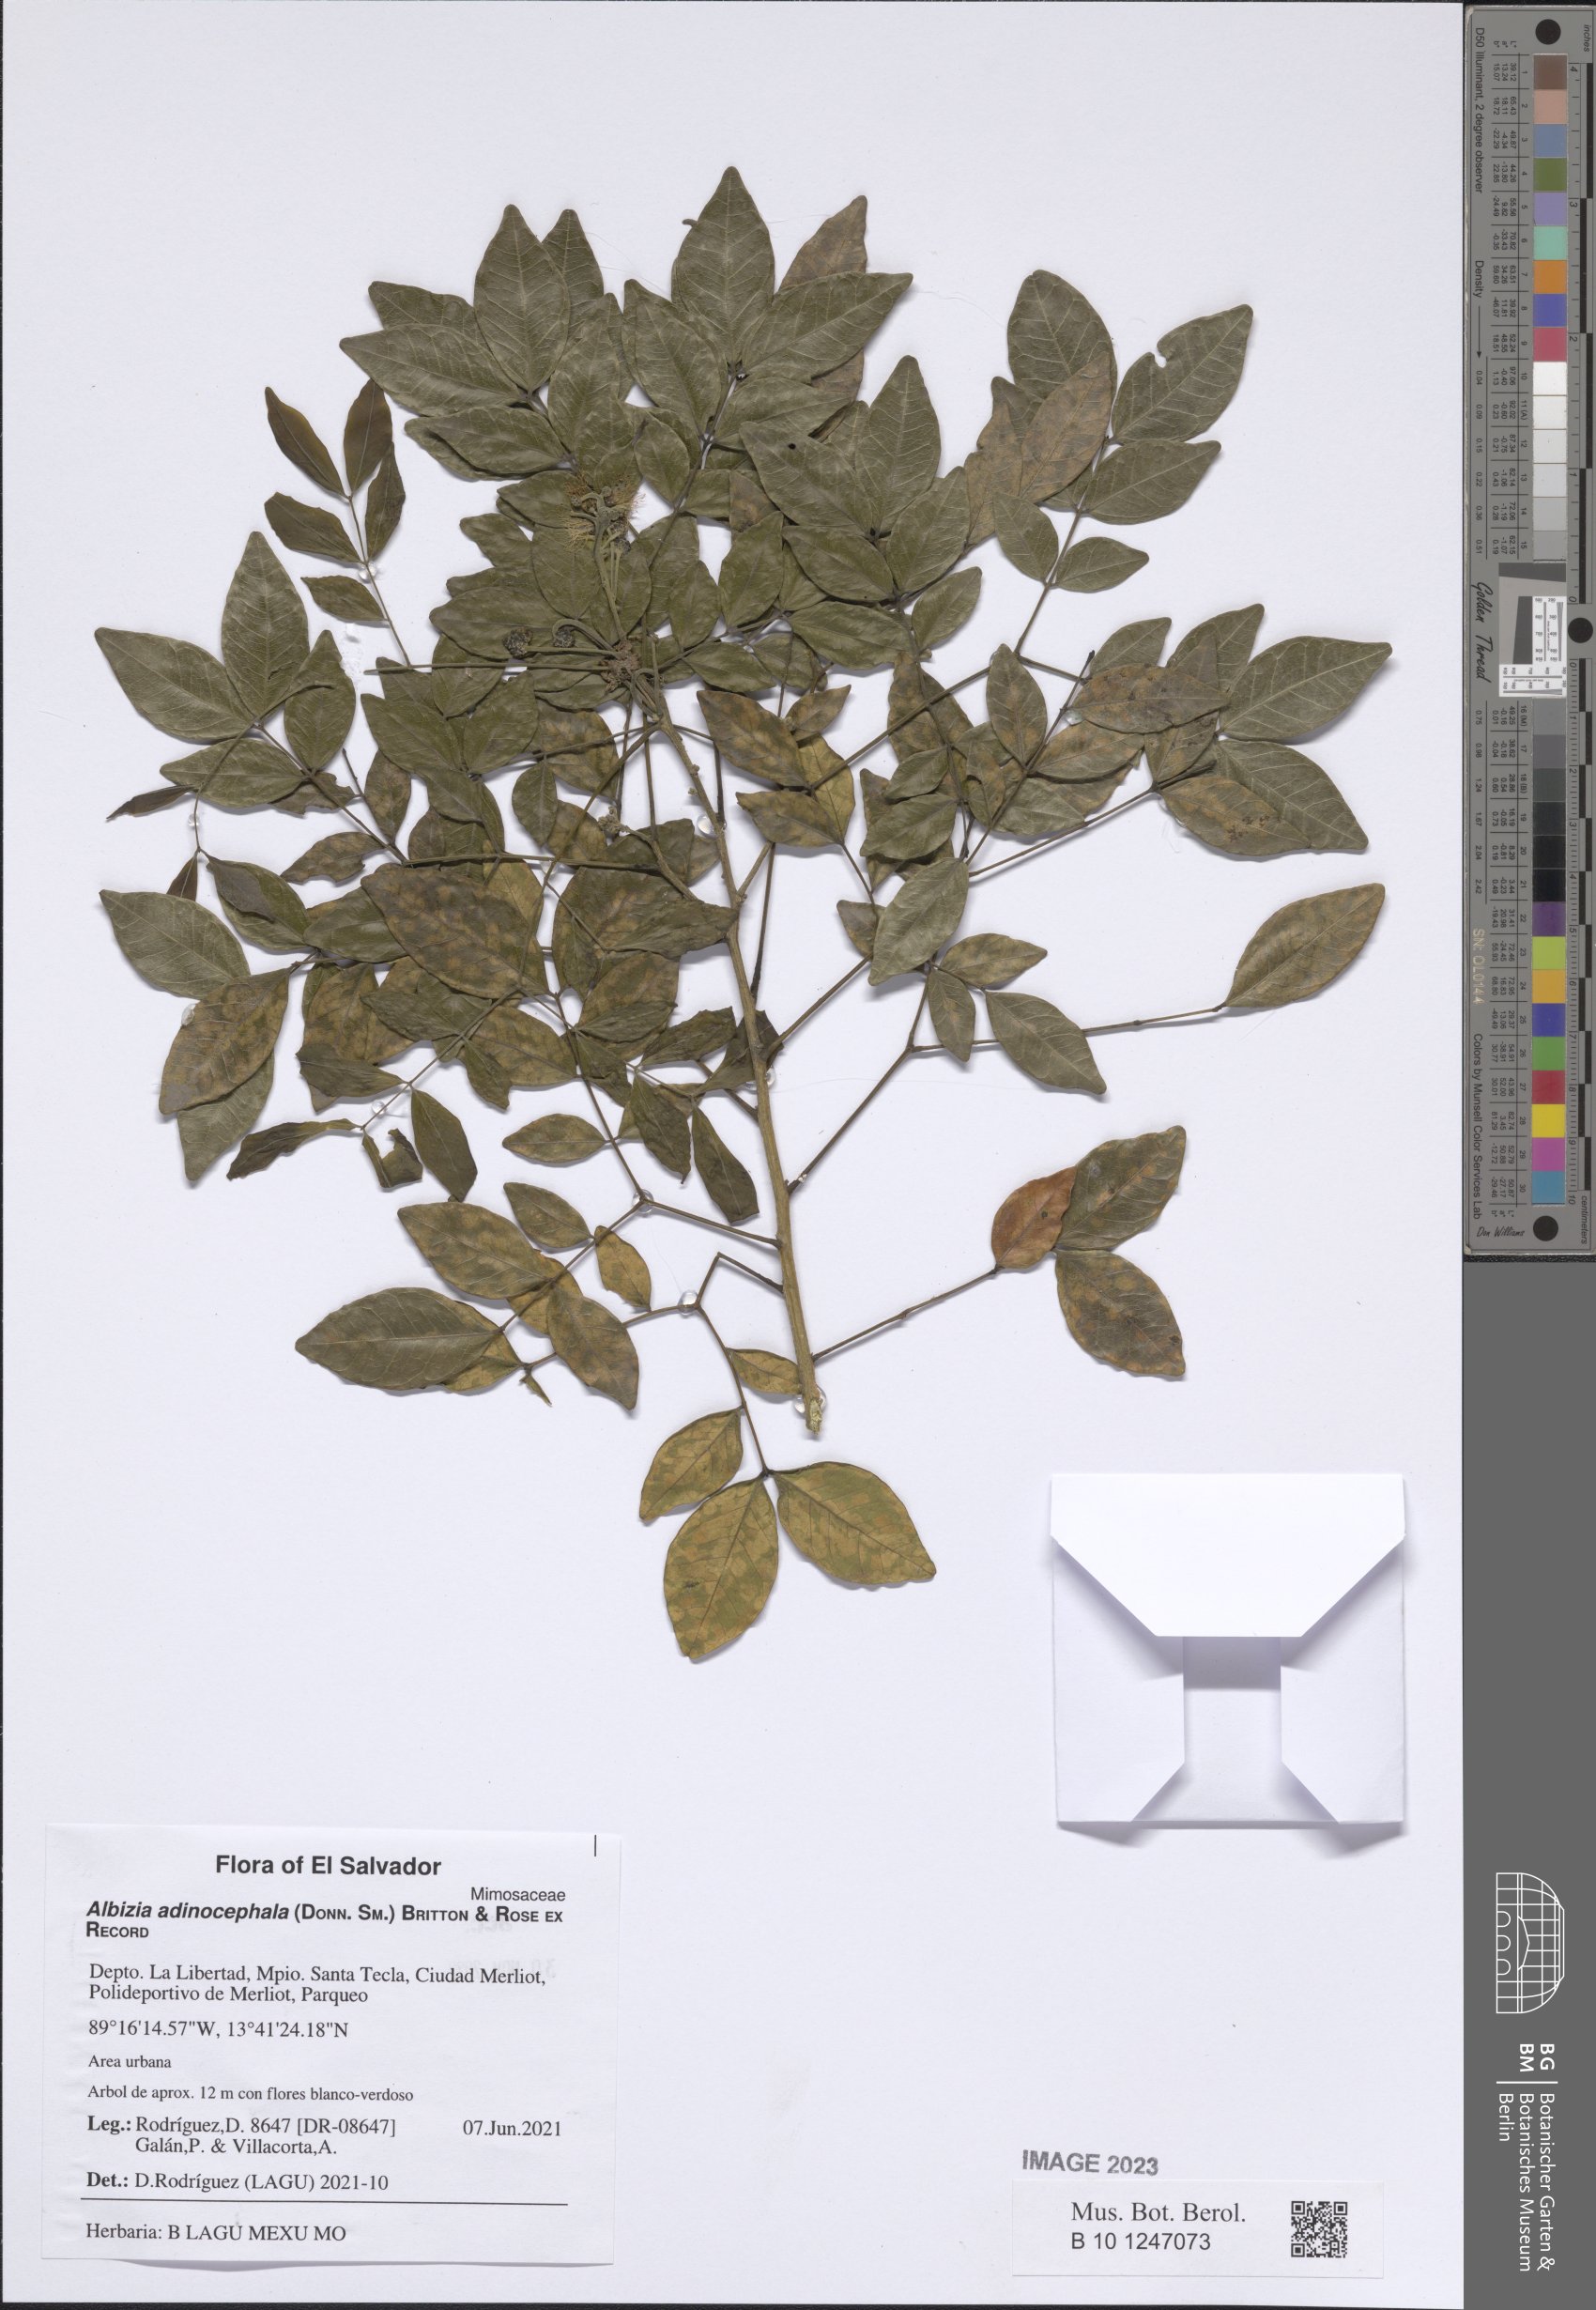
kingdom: Plantae
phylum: Tracheophyta
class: Magnoliopsida
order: Fabales
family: Fabaceae
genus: Albizia
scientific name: Albizia adinocephala
